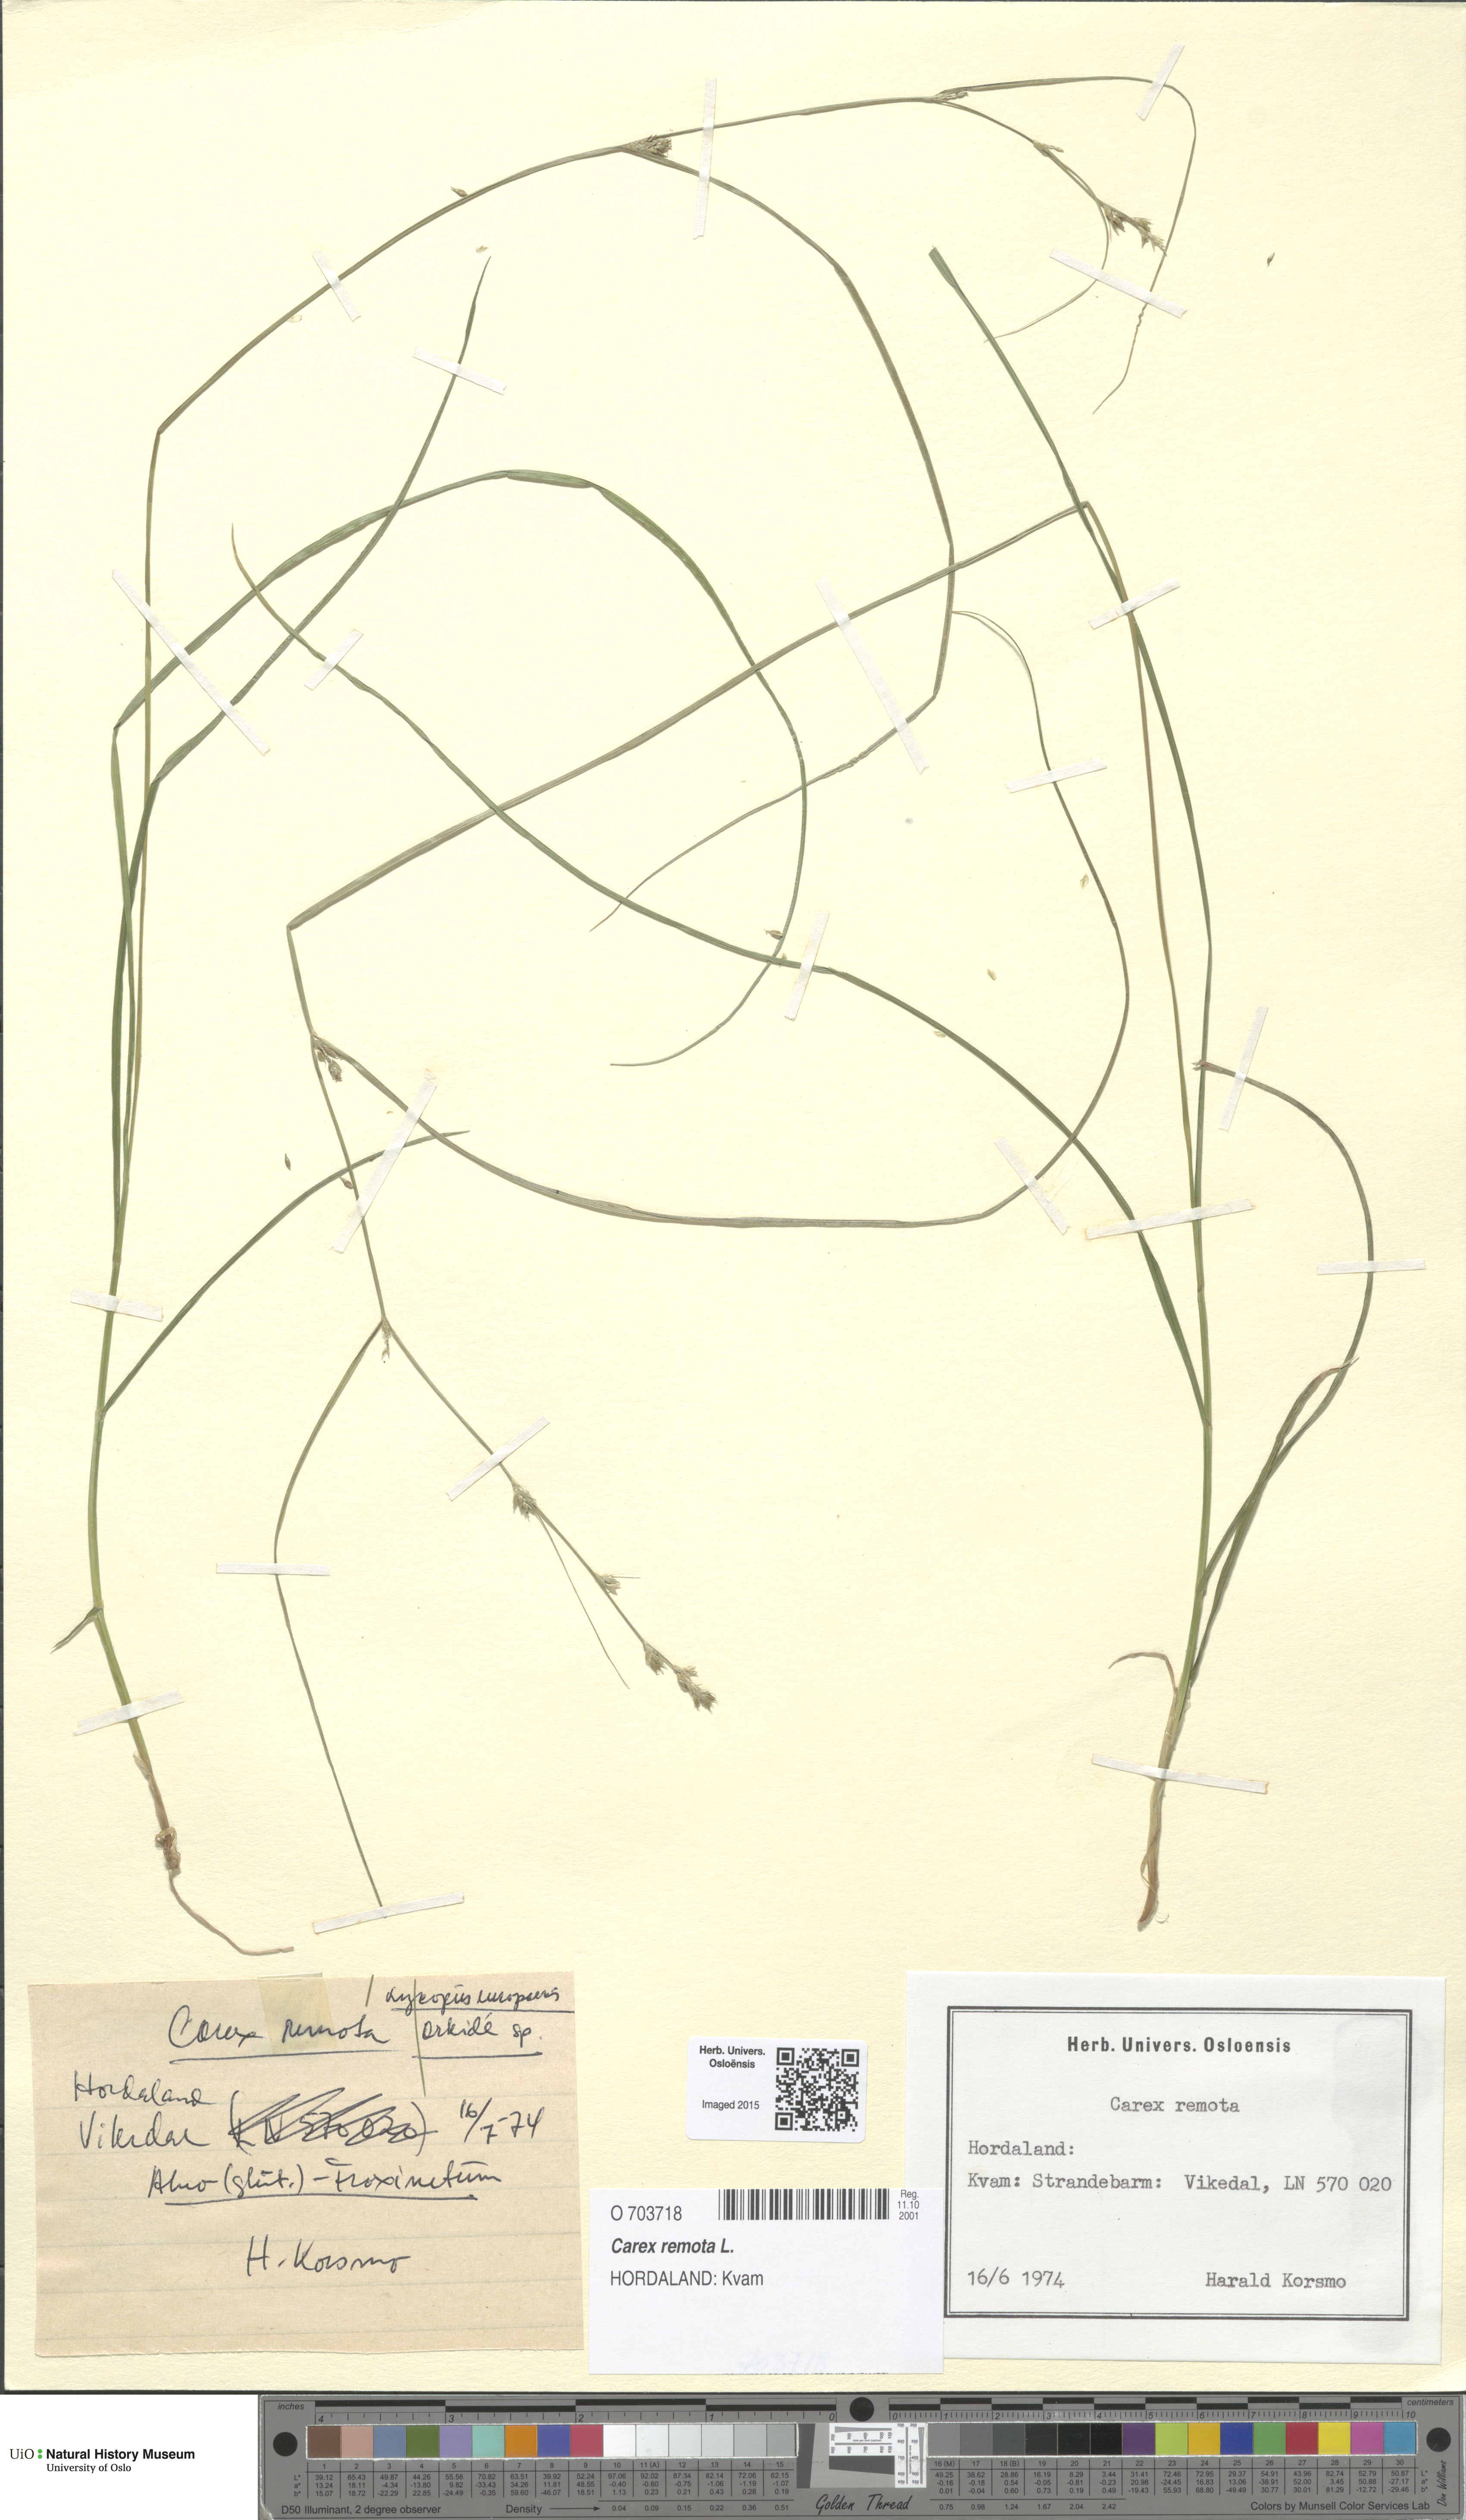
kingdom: Plantae
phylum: Tracheophyta
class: Liliopsida
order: Poales
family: Cyperaceae
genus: Carex
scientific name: Carex remota
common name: Remote sedge
